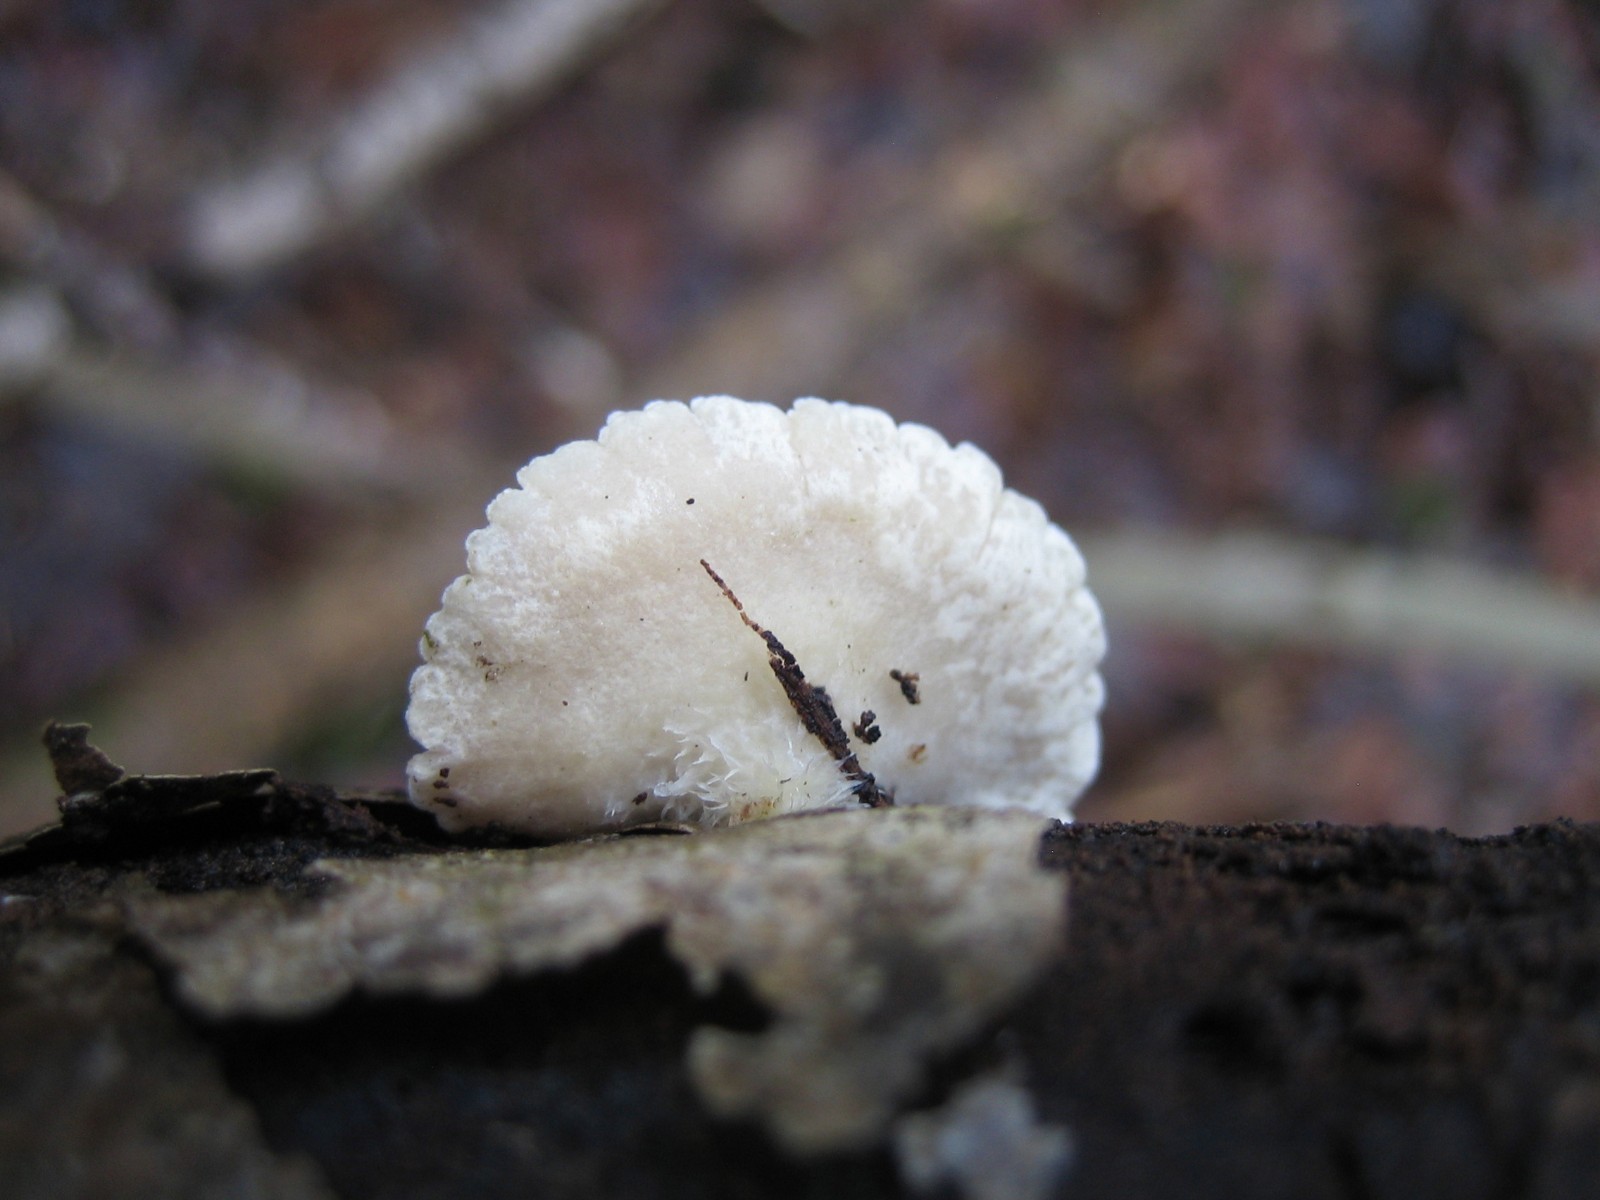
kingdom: Fungi
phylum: Basidiomycota
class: Agaricomycetes
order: Agaricales
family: Crepidotaceae
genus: Crepidotus
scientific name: Crepidotus
